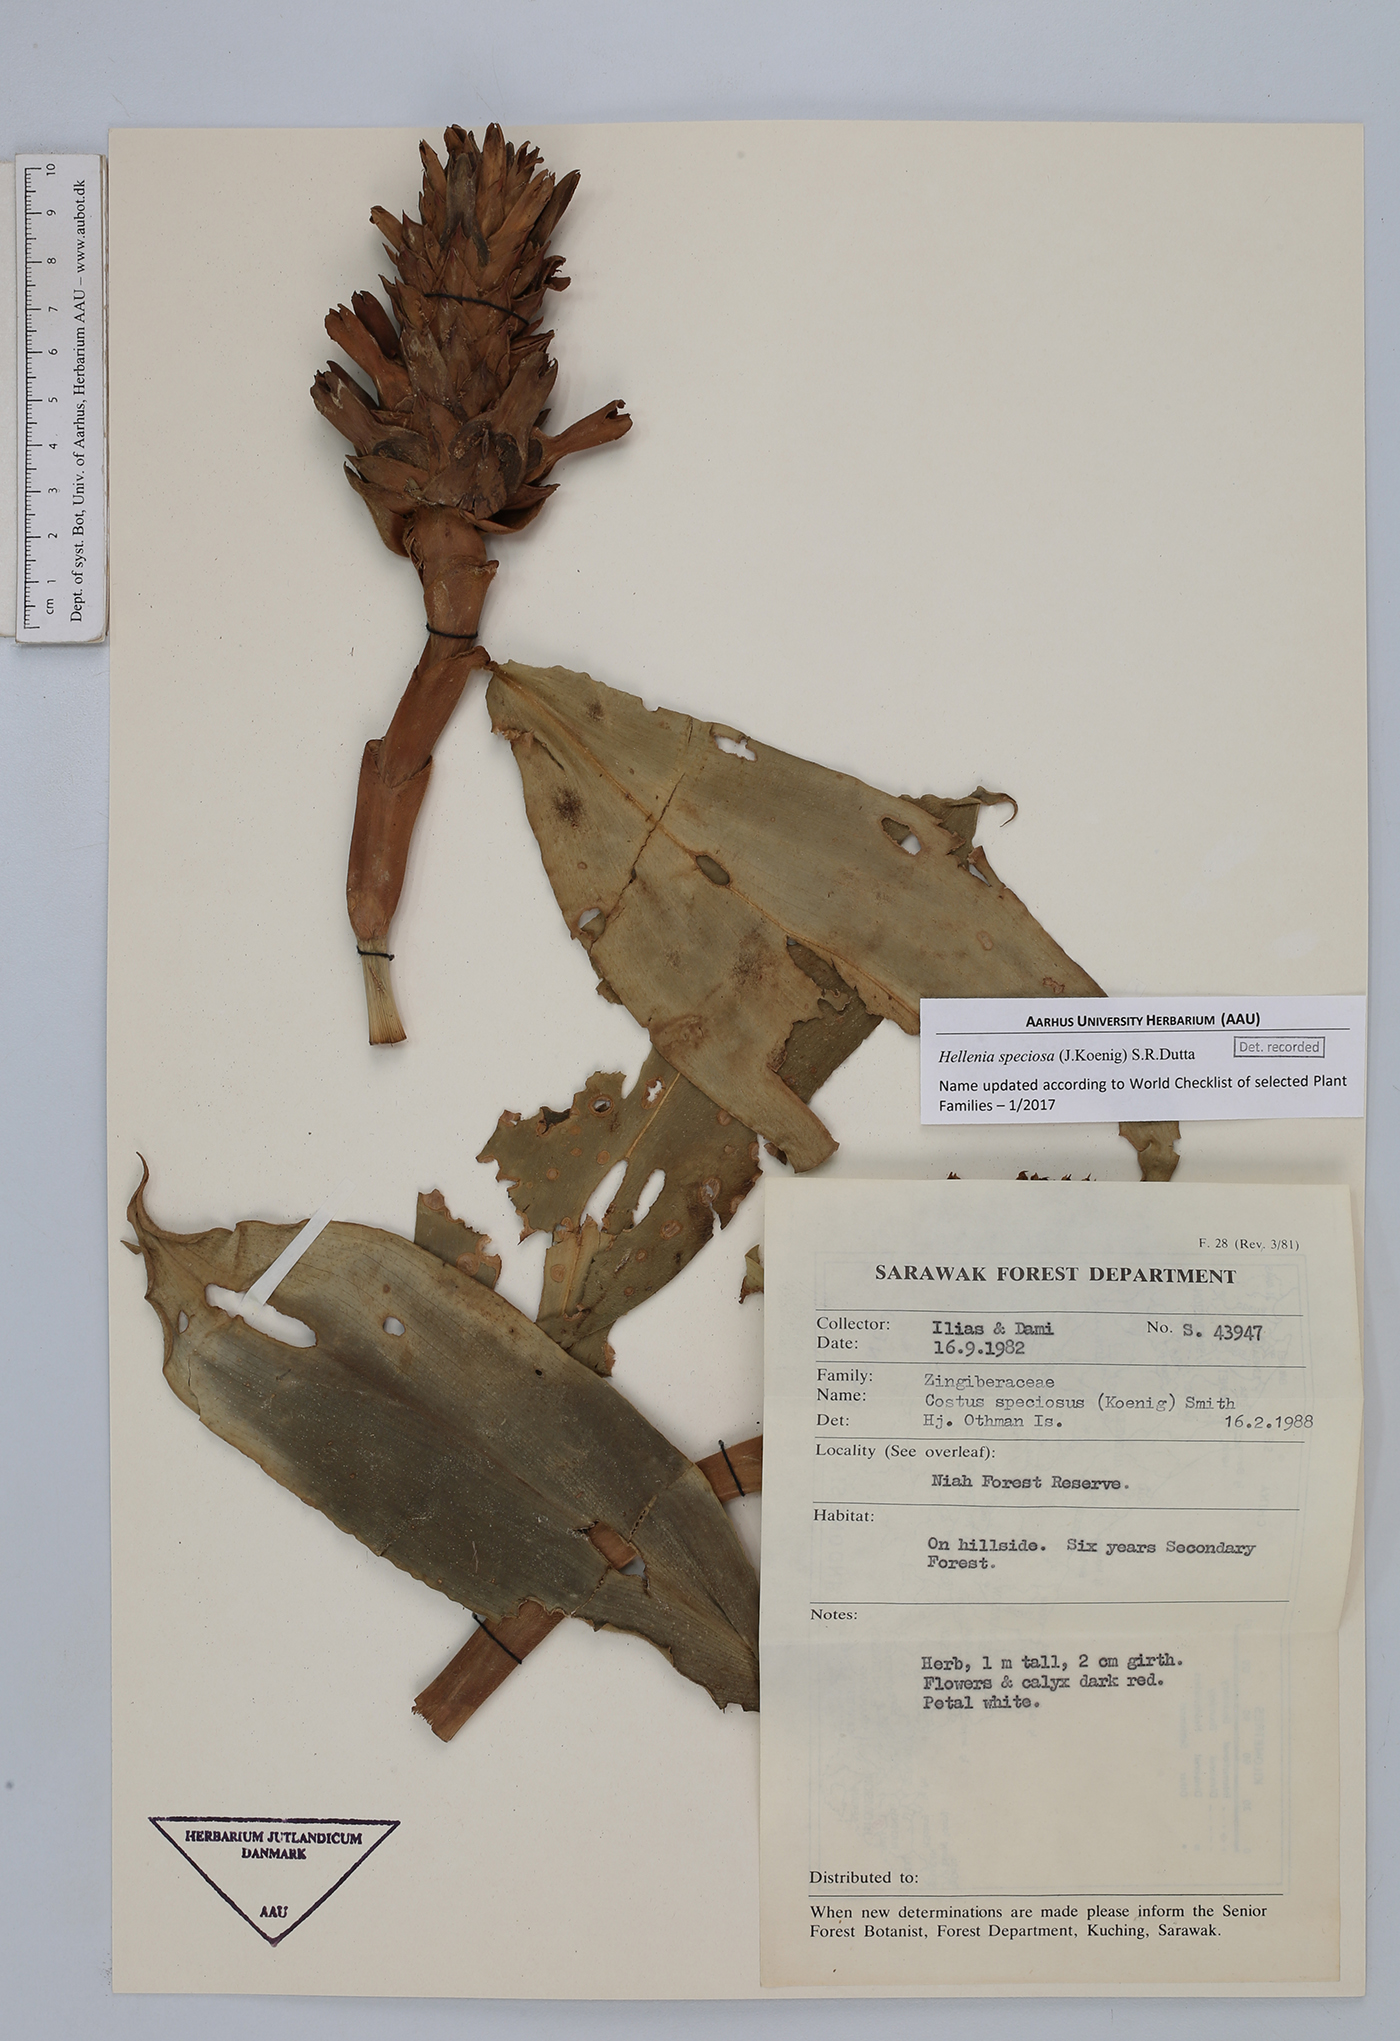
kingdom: Plantae
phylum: Tracheophyta
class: Liliopsida
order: Zingiberales
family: Costaceae
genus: Hellenia
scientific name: Hellenia speciosa
